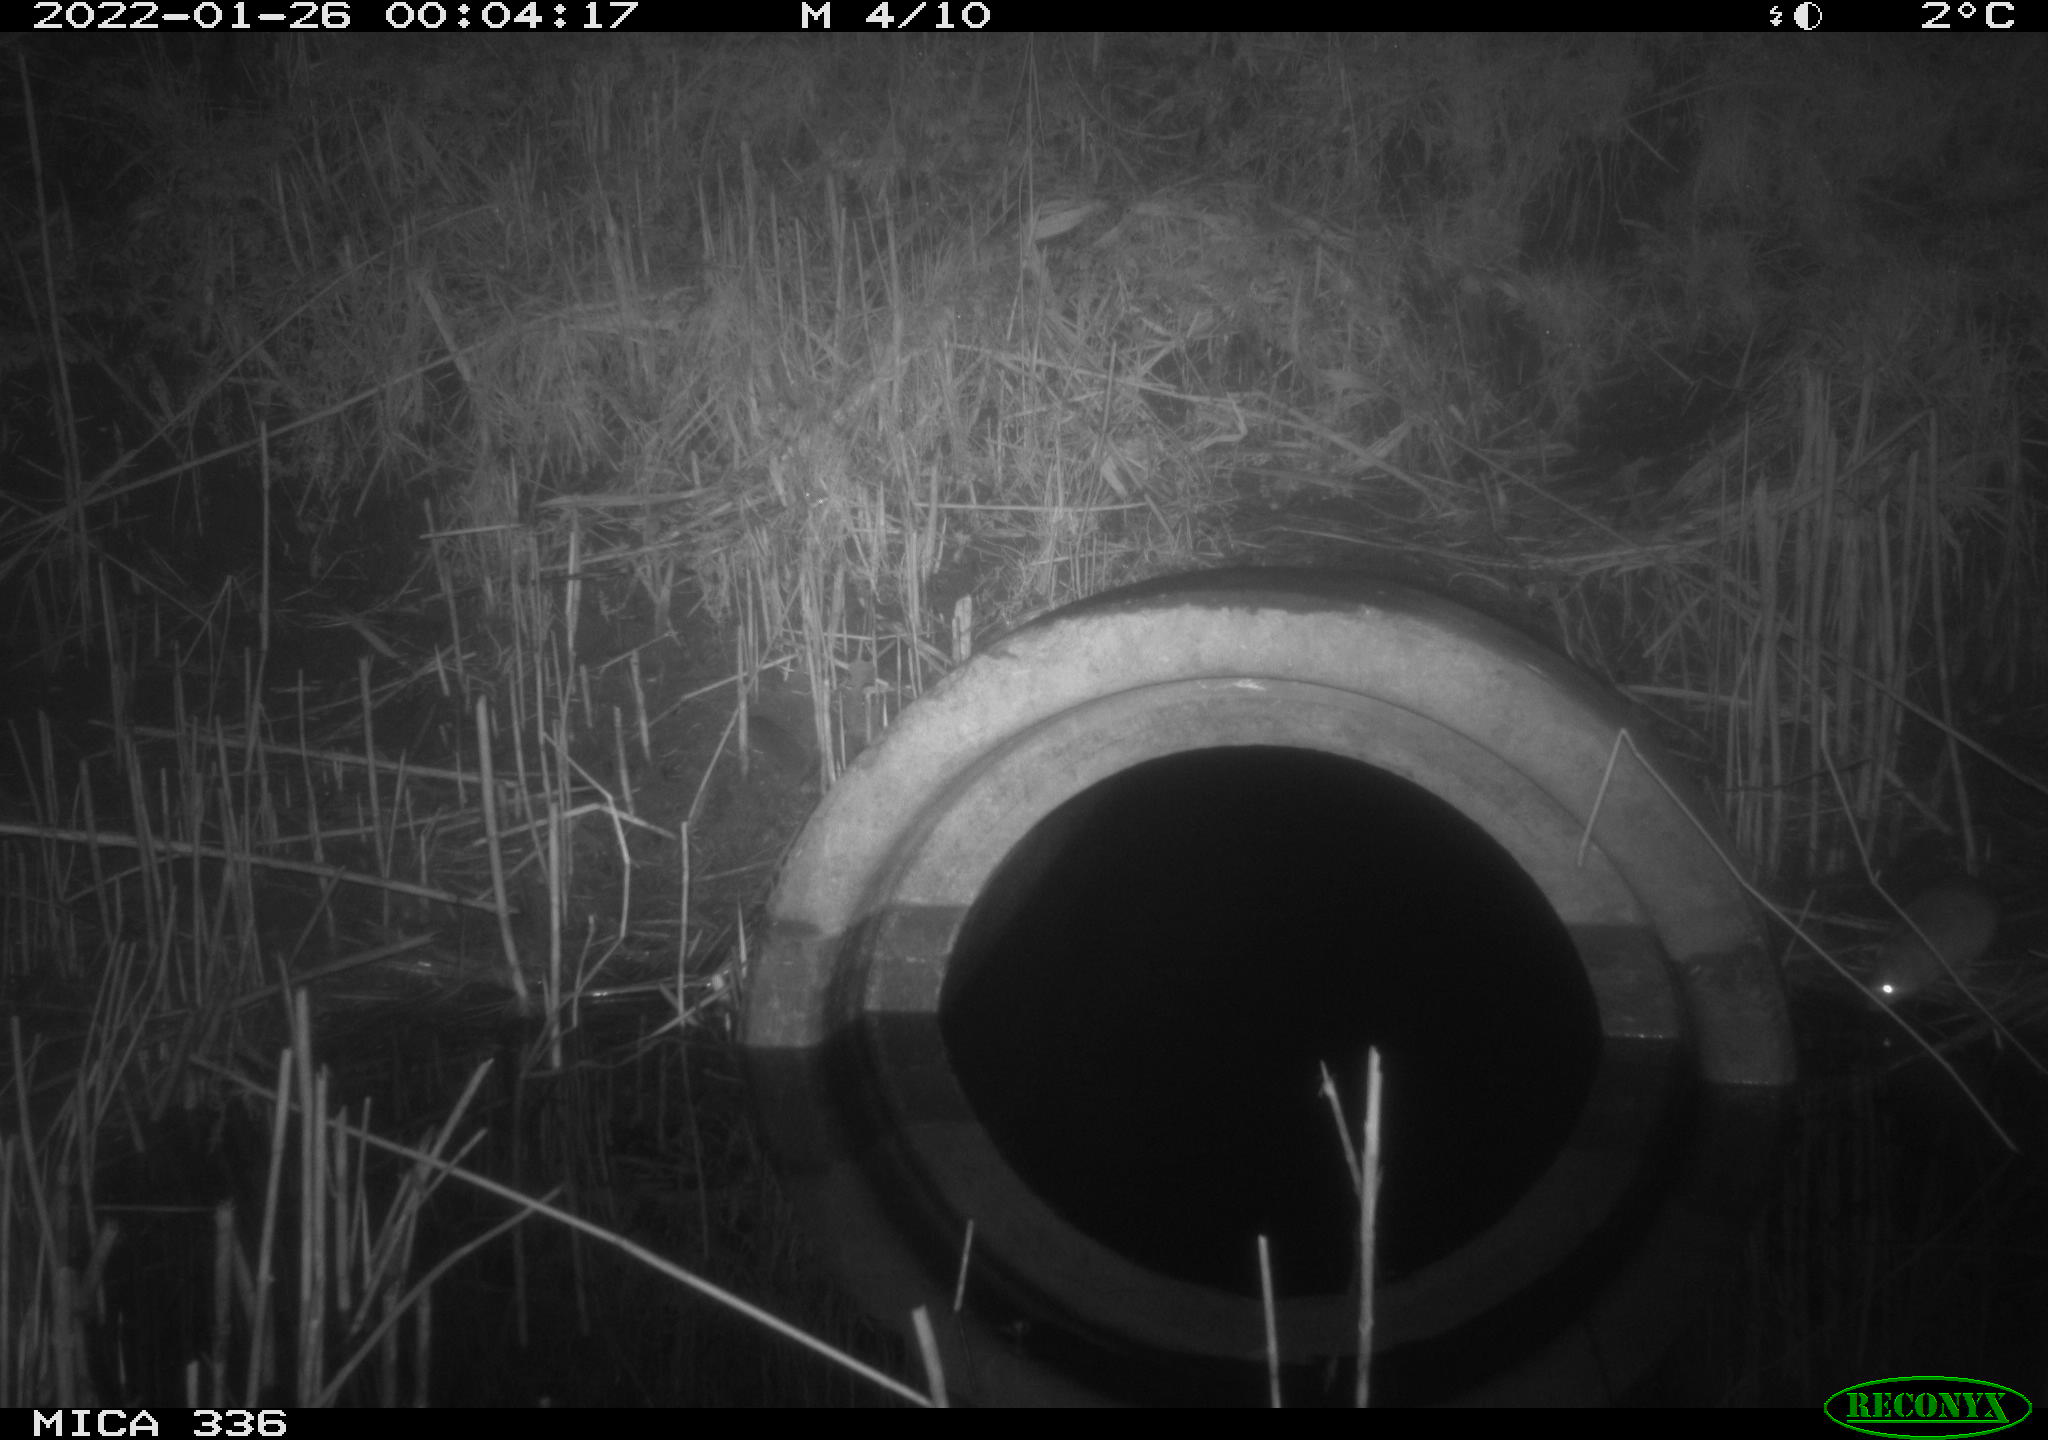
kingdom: Animalia
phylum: Chordata
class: Mammalia
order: Rodentia
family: Muridae
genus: Rattus
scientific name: Rattus norvegicus
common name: Brown rat
